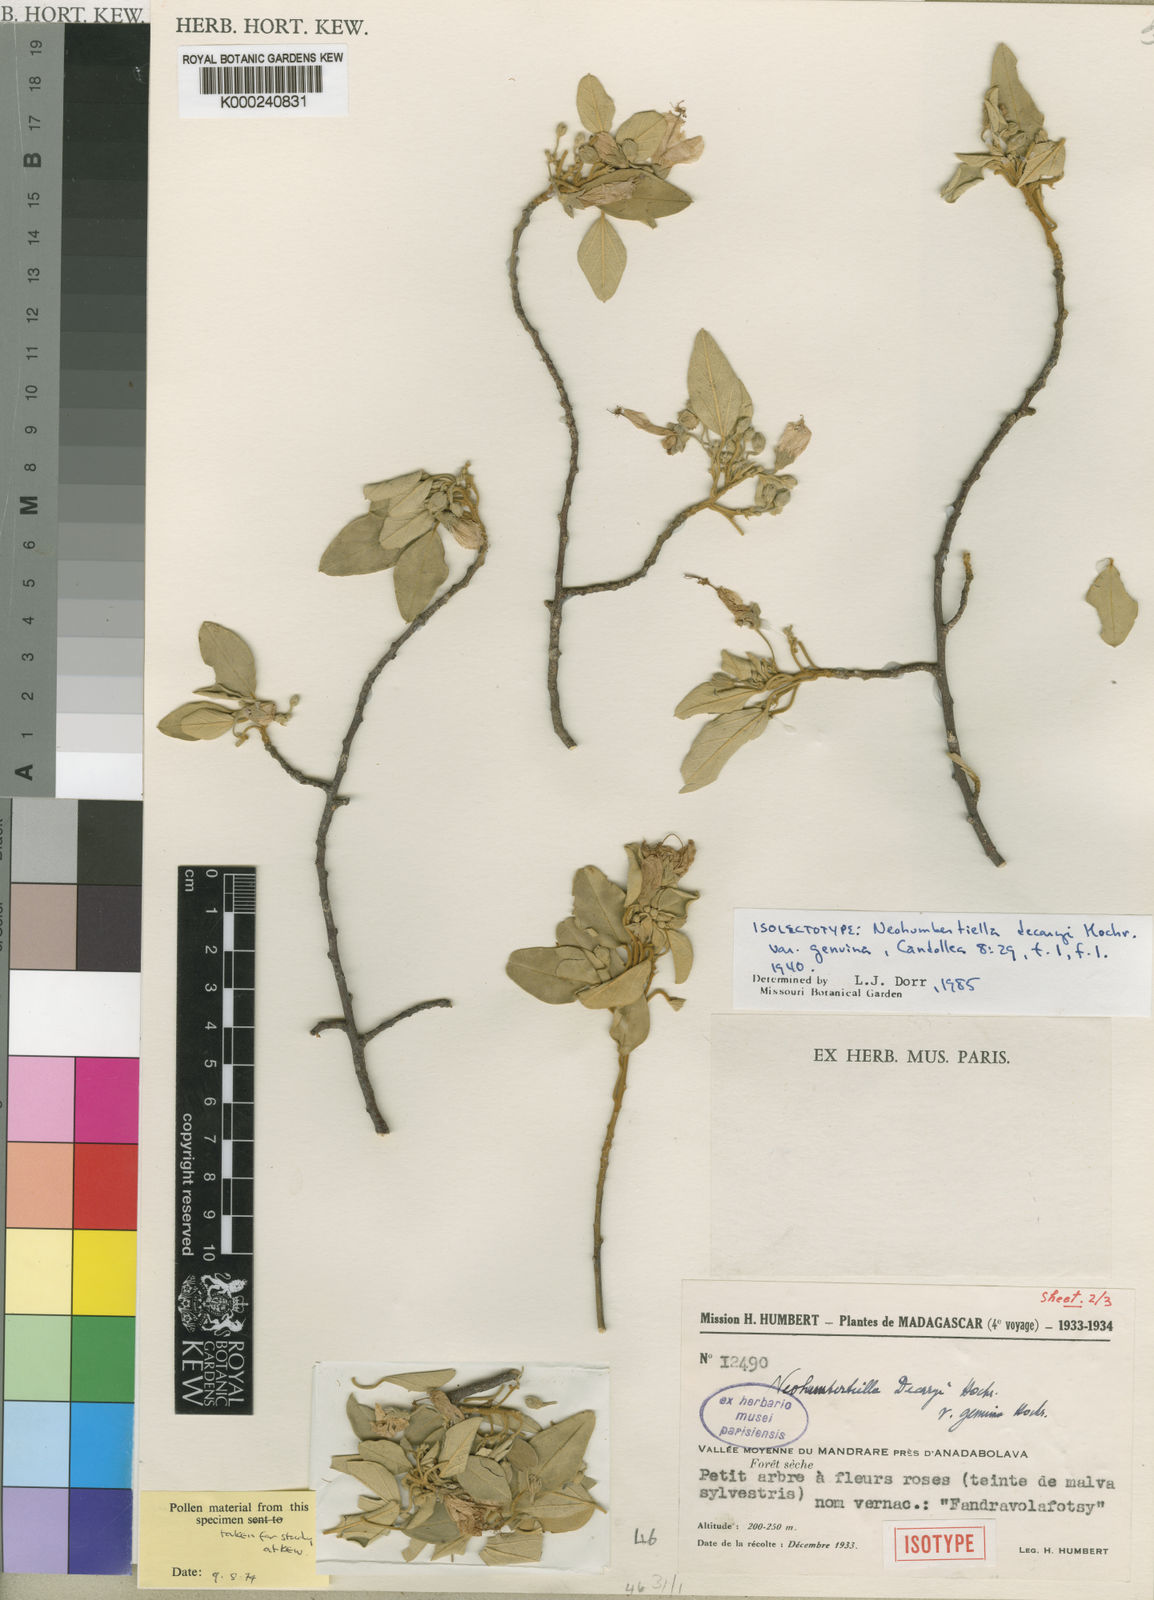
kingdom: Plantae
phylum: Tracheophyta
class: Magnoliopsida
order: Malvales
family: Malvaceae
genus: Humbertiella
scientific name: Humbertiella decaryi
